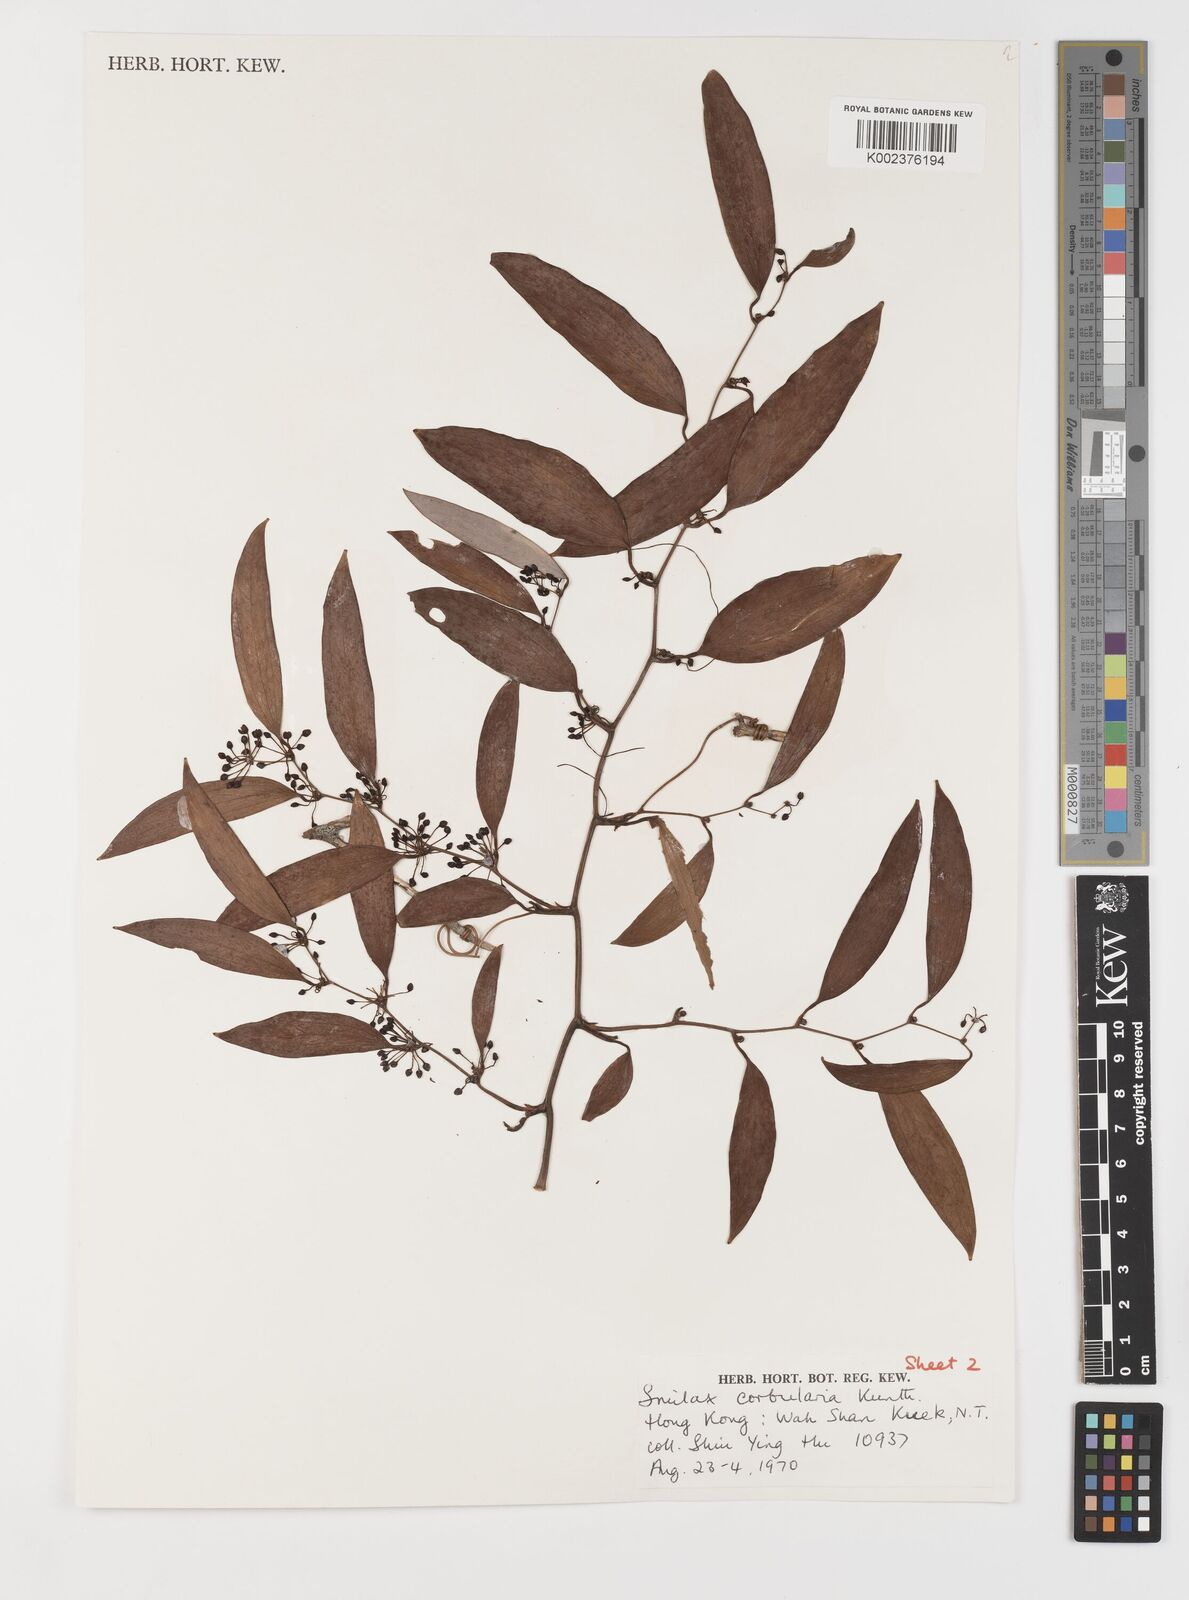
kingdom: Plantae
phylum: Tracheophyta
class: Liliopsida
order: Liliales
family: Smilacaceae
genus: Smilax
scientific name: Smilax corbularia
